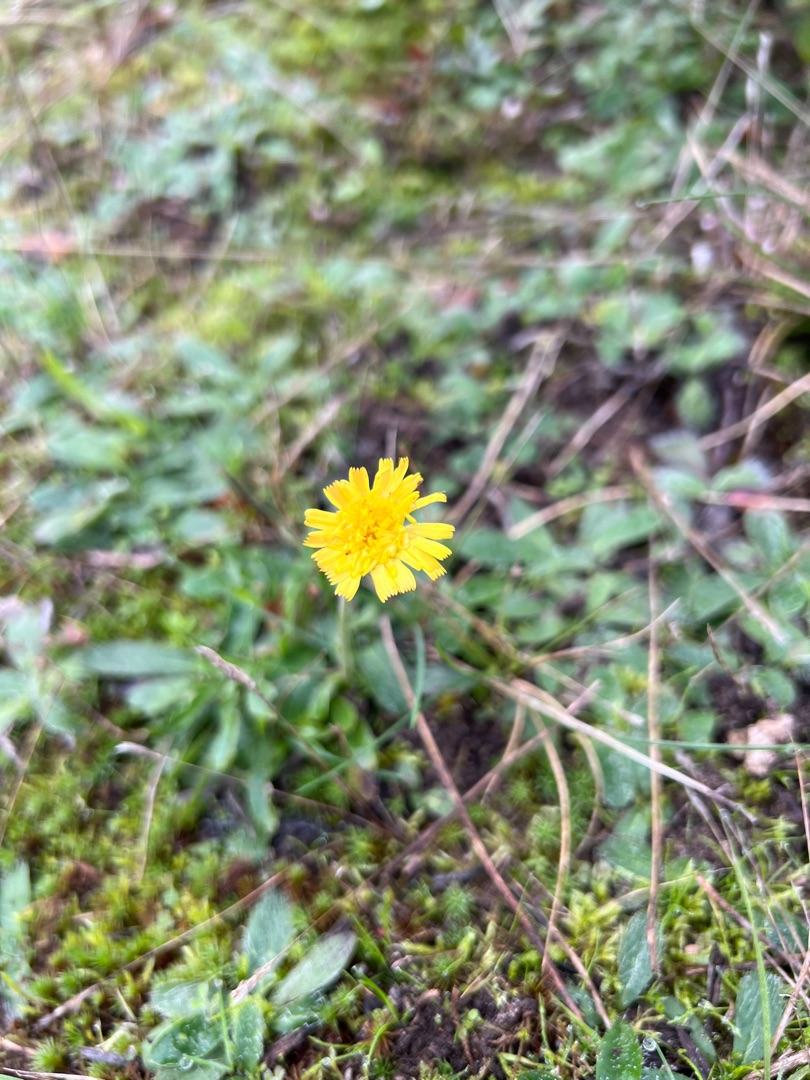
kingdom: Plantae
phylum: Tracheophyta
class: Magnoliopsida
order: Asterales
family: Asteraceae
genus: Pilosella
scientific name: Pilosella officinarum
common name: Håret høgeurt
